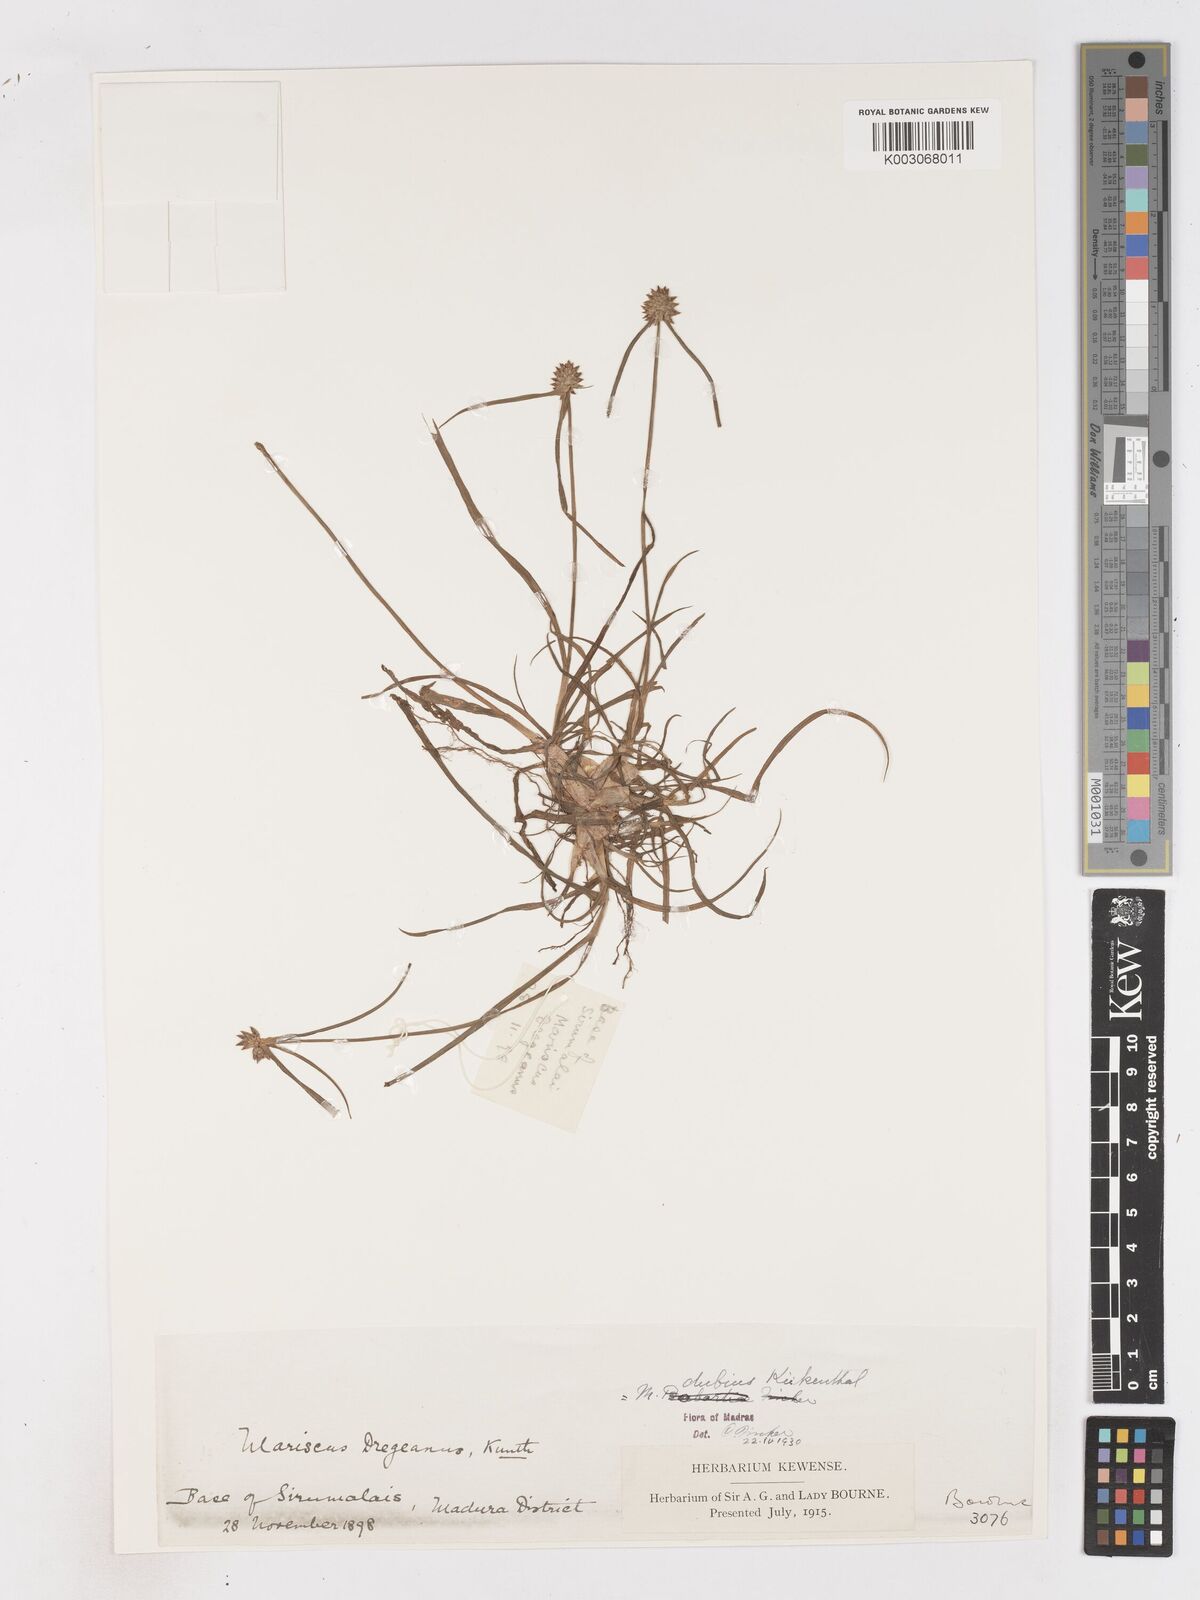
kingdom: Plantae
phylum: Tracheophyta
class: Liliopsida
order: Poales
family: Cyperaceae
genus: Cyperus
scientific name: Cyperus dubius
